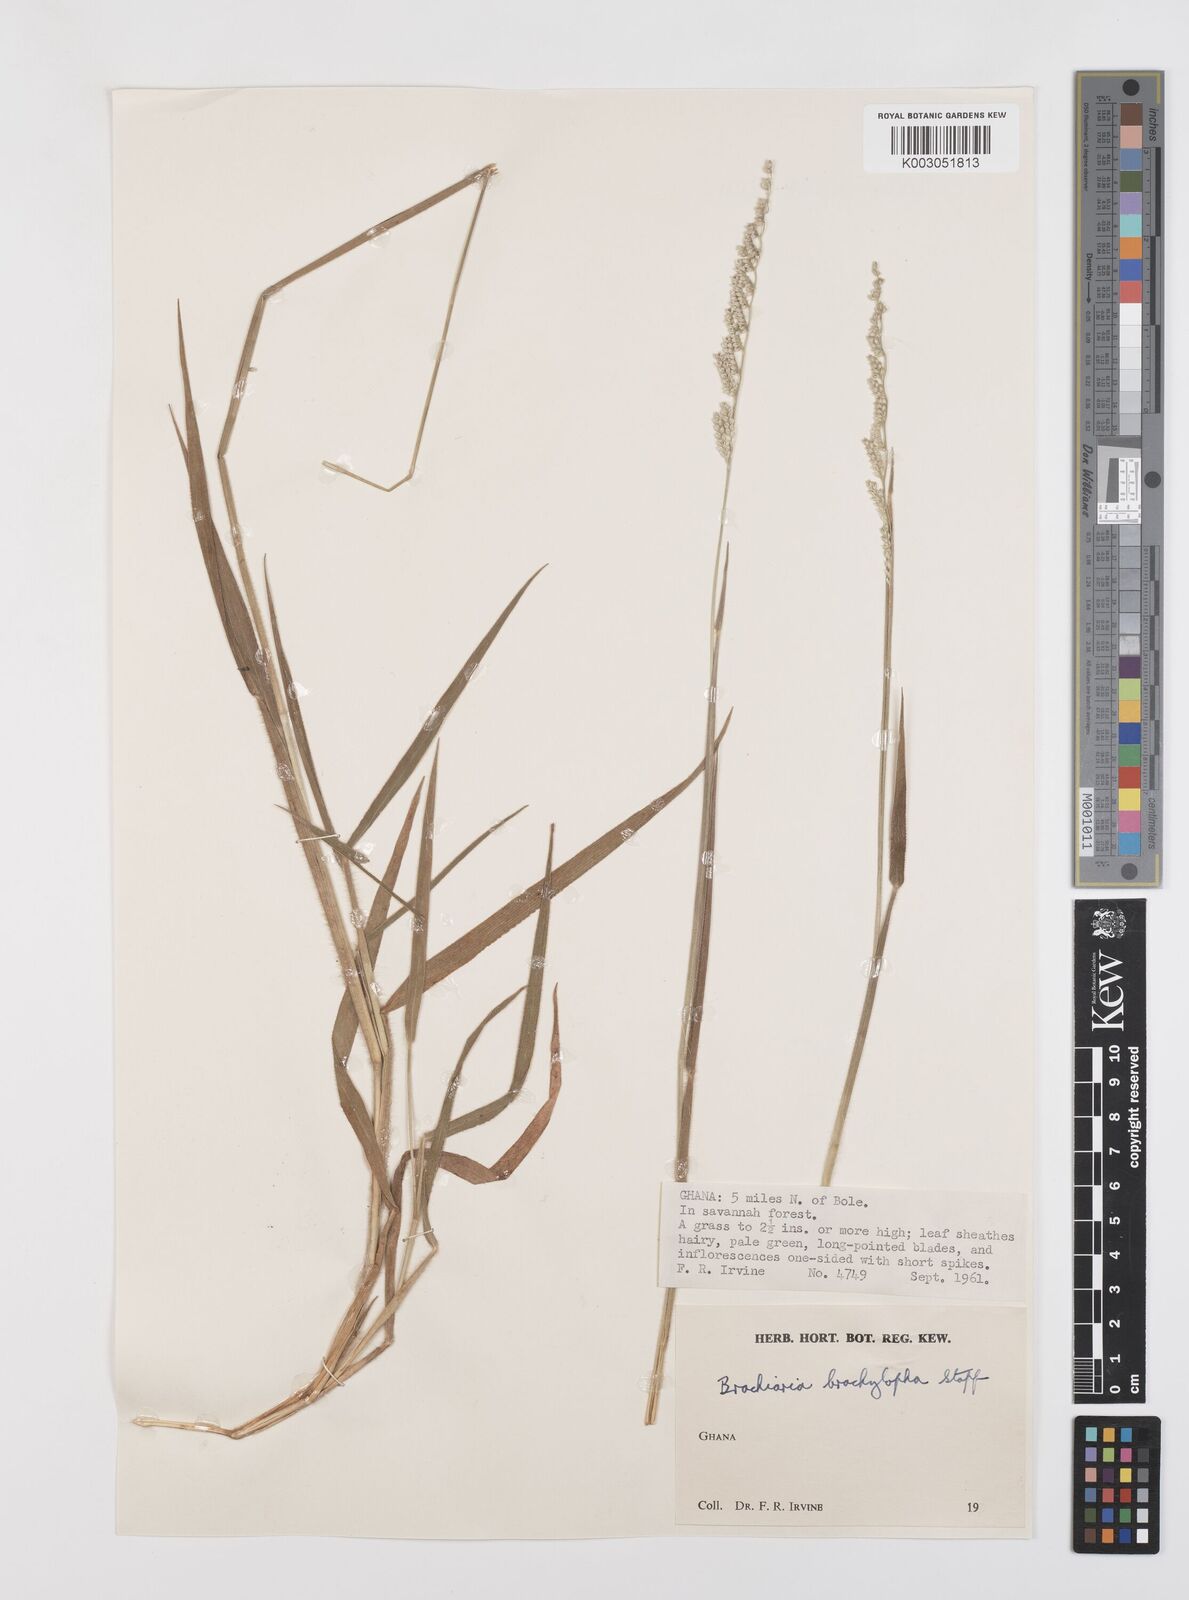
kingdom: Plantae
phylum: Tracheophyta
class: Liliopsida
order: Poales
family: Poaceae
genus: Urochloa
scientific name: Urochloa serrata
